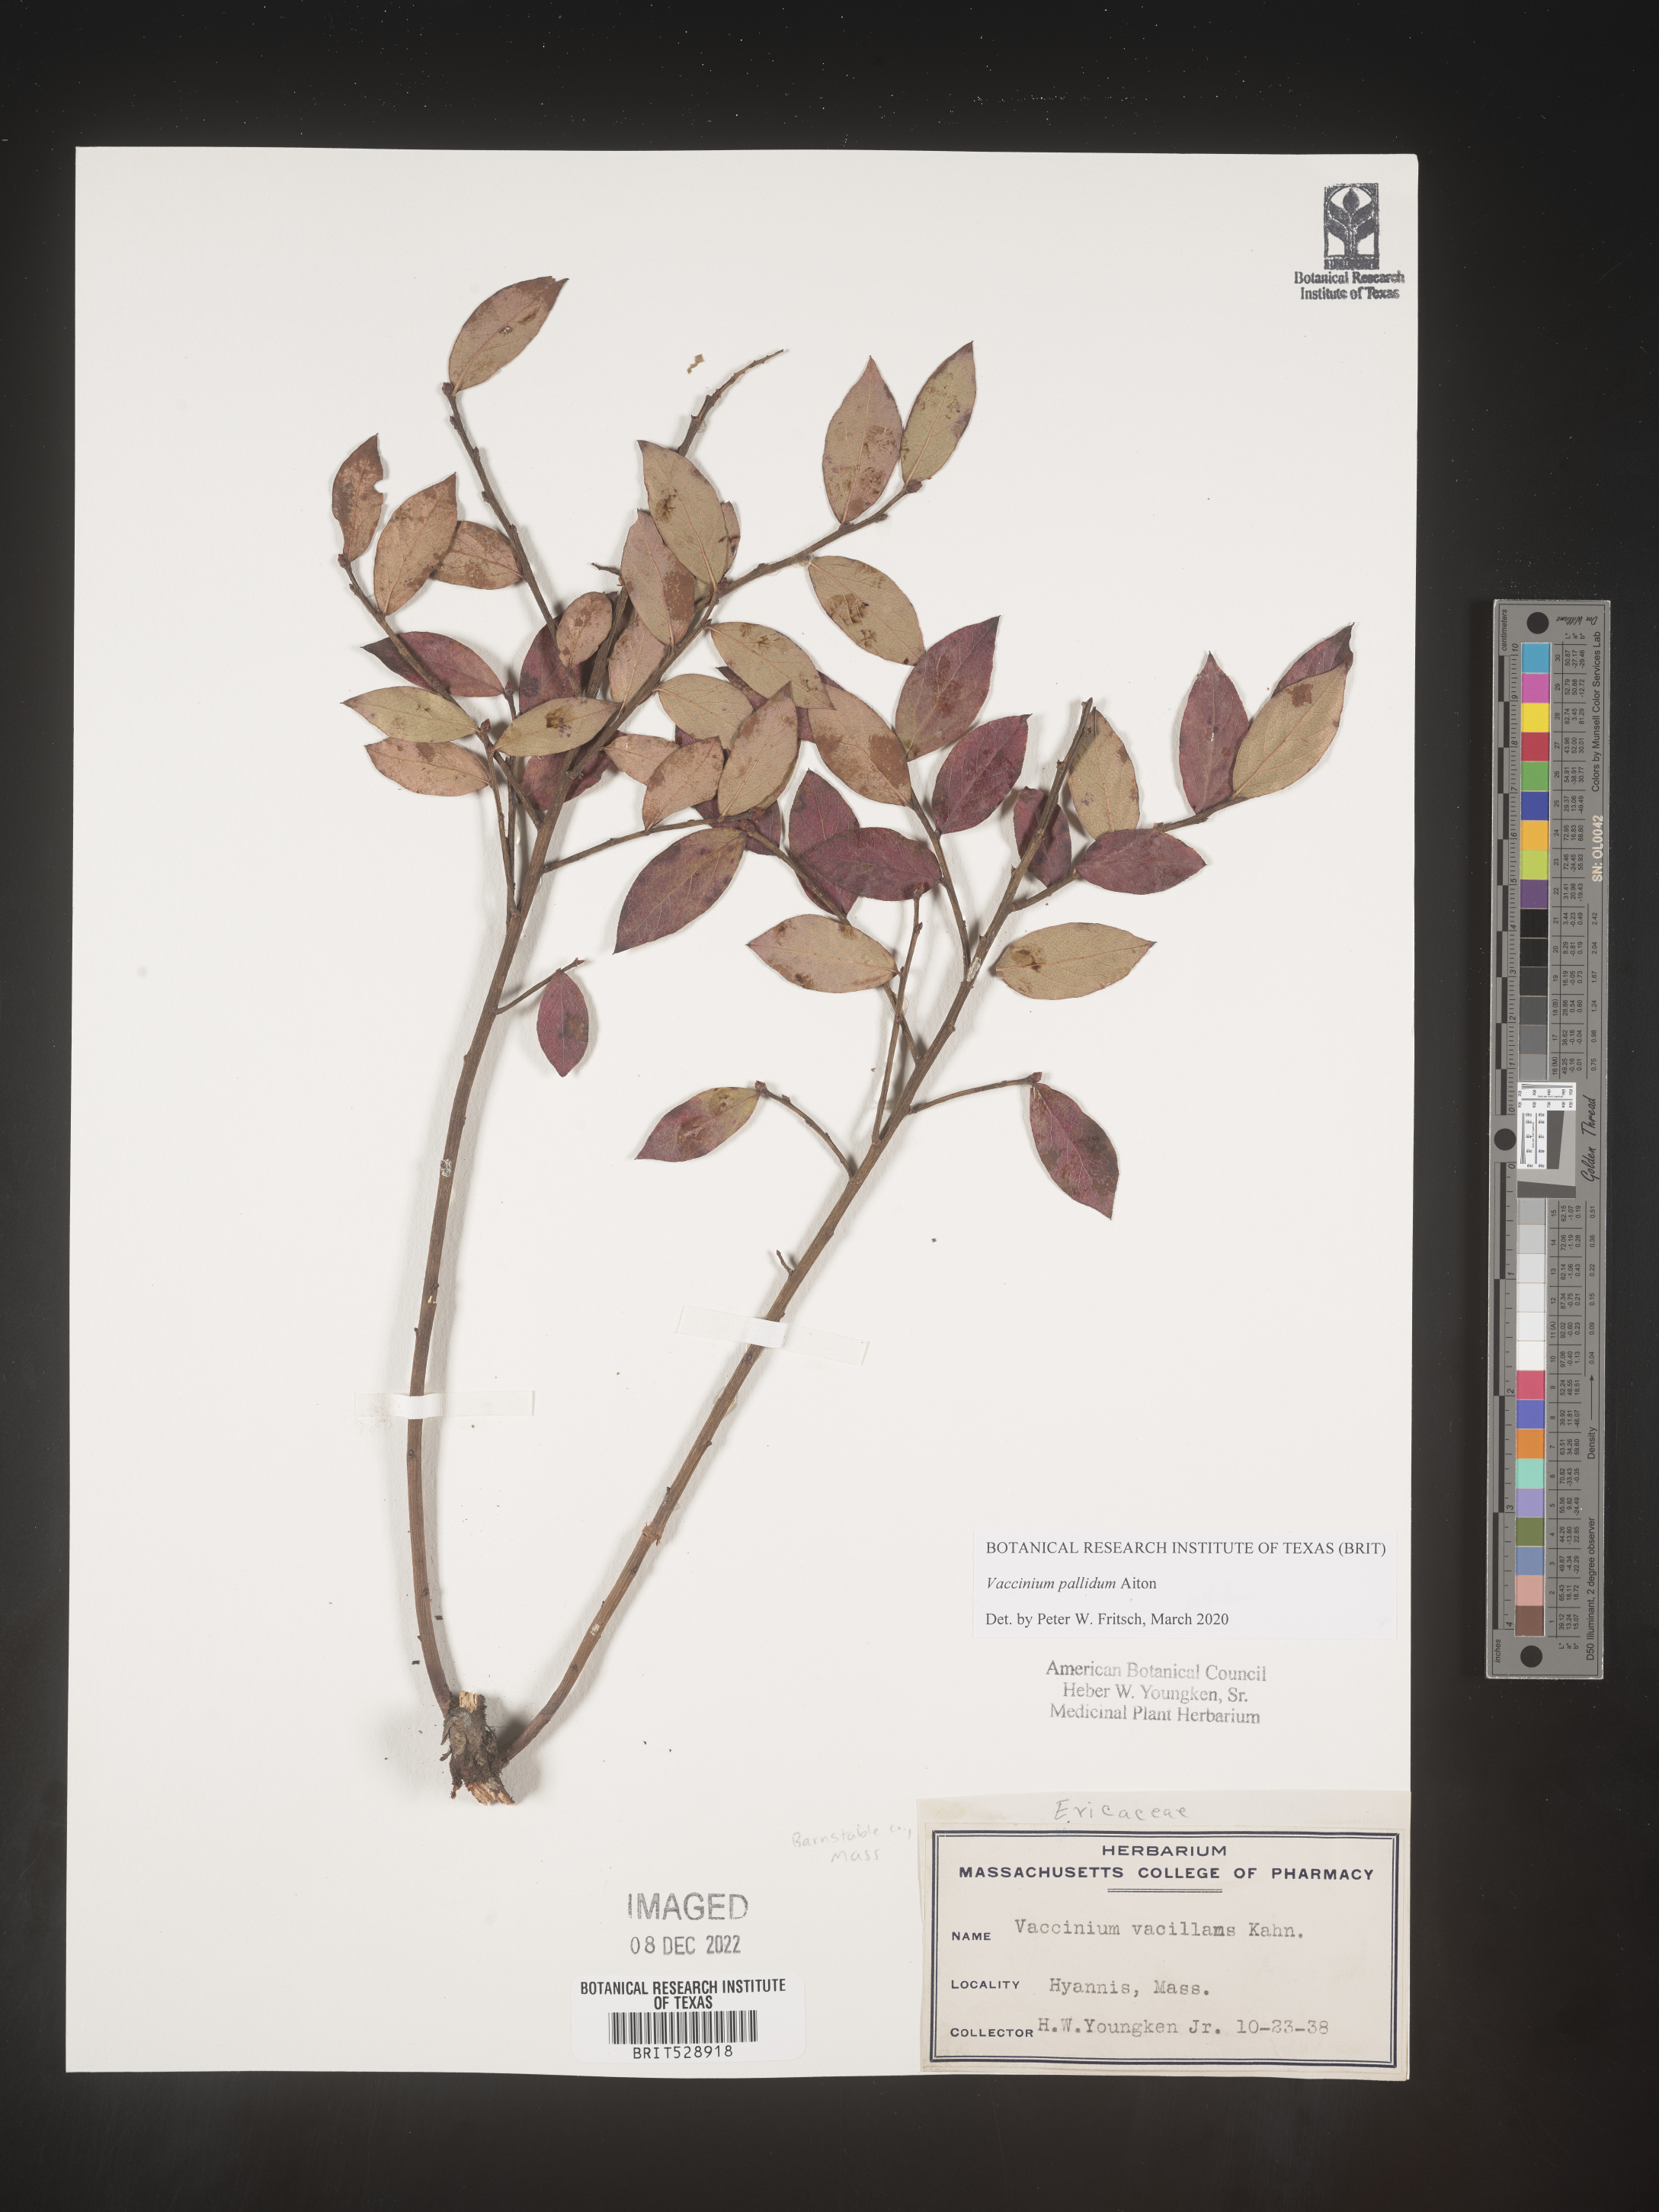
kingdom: Plantae
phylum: Tracheophyta
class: Magnoliopsida
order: Ericales
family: Ericaceae
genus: Vaccinium
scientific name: Vaccinium pallidum
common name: Blue ridge blueberry
